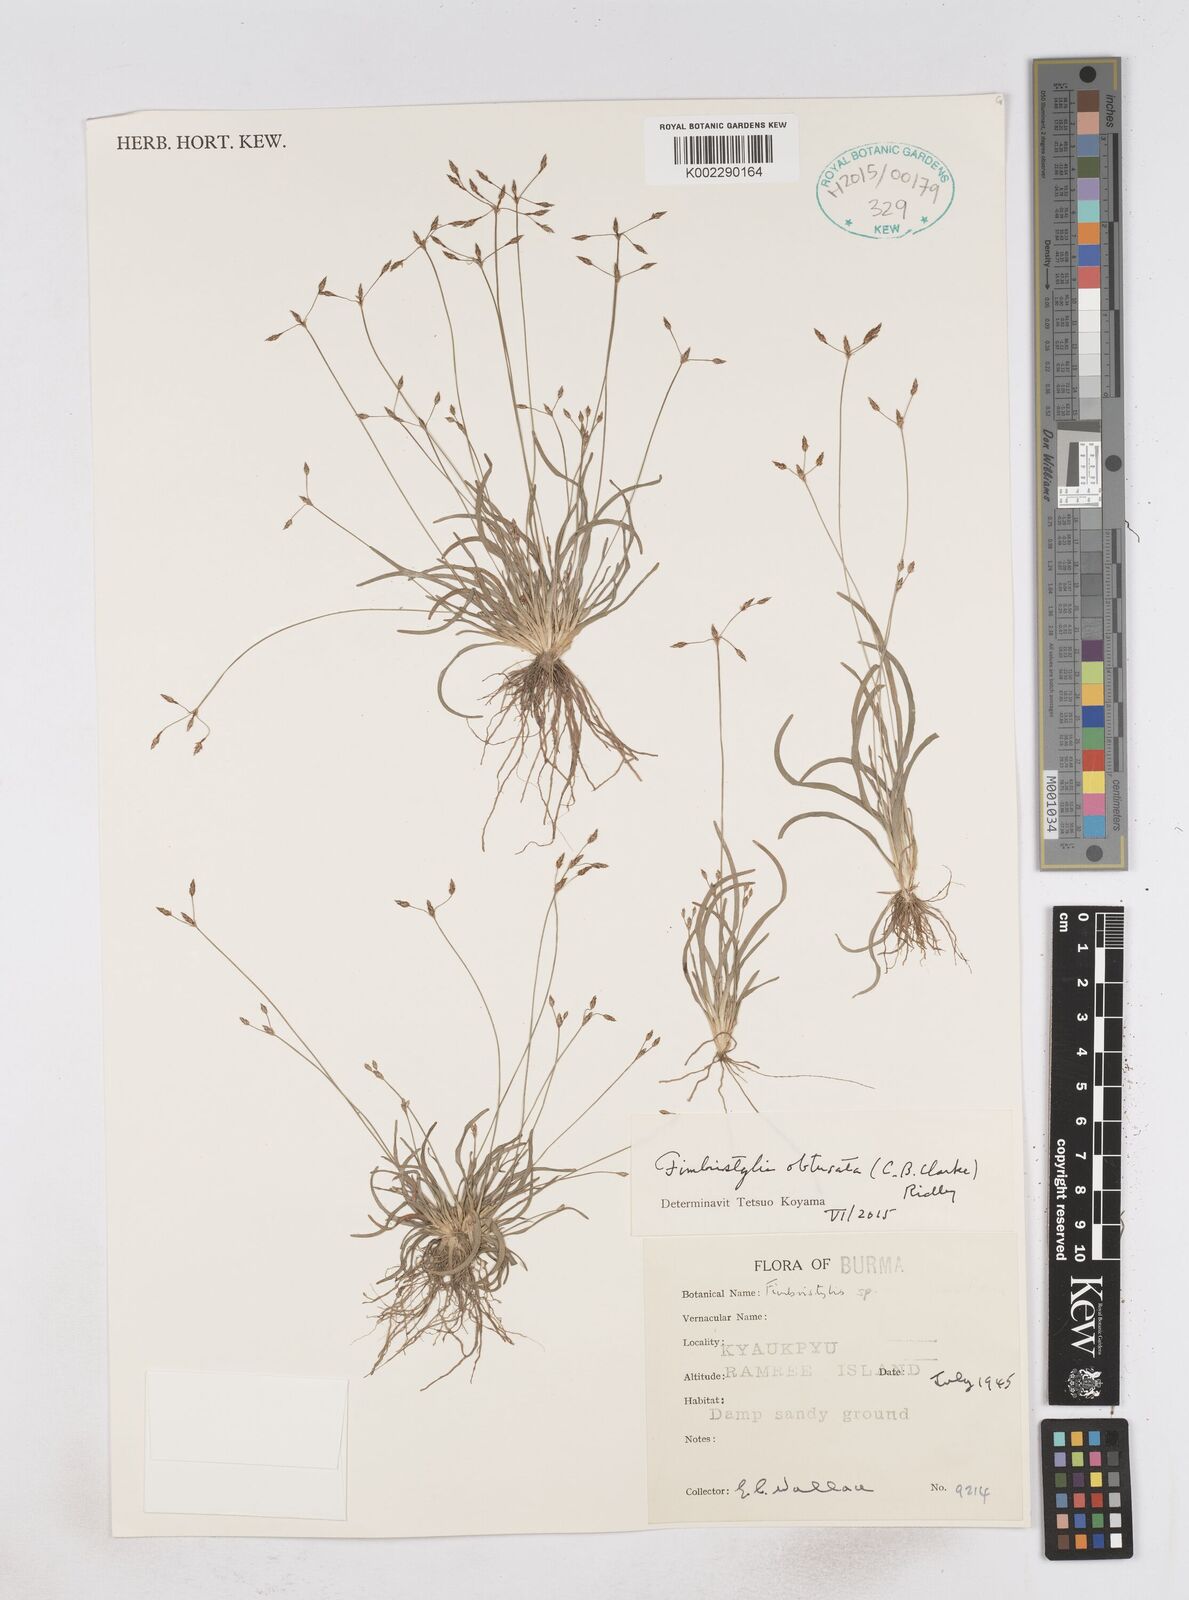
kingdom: Plantae
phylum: Tracheophyta
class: Liliopsida
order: Poales
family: Cyperaceae
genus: Fimbristylis
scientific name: Fimbristylis obtusata
